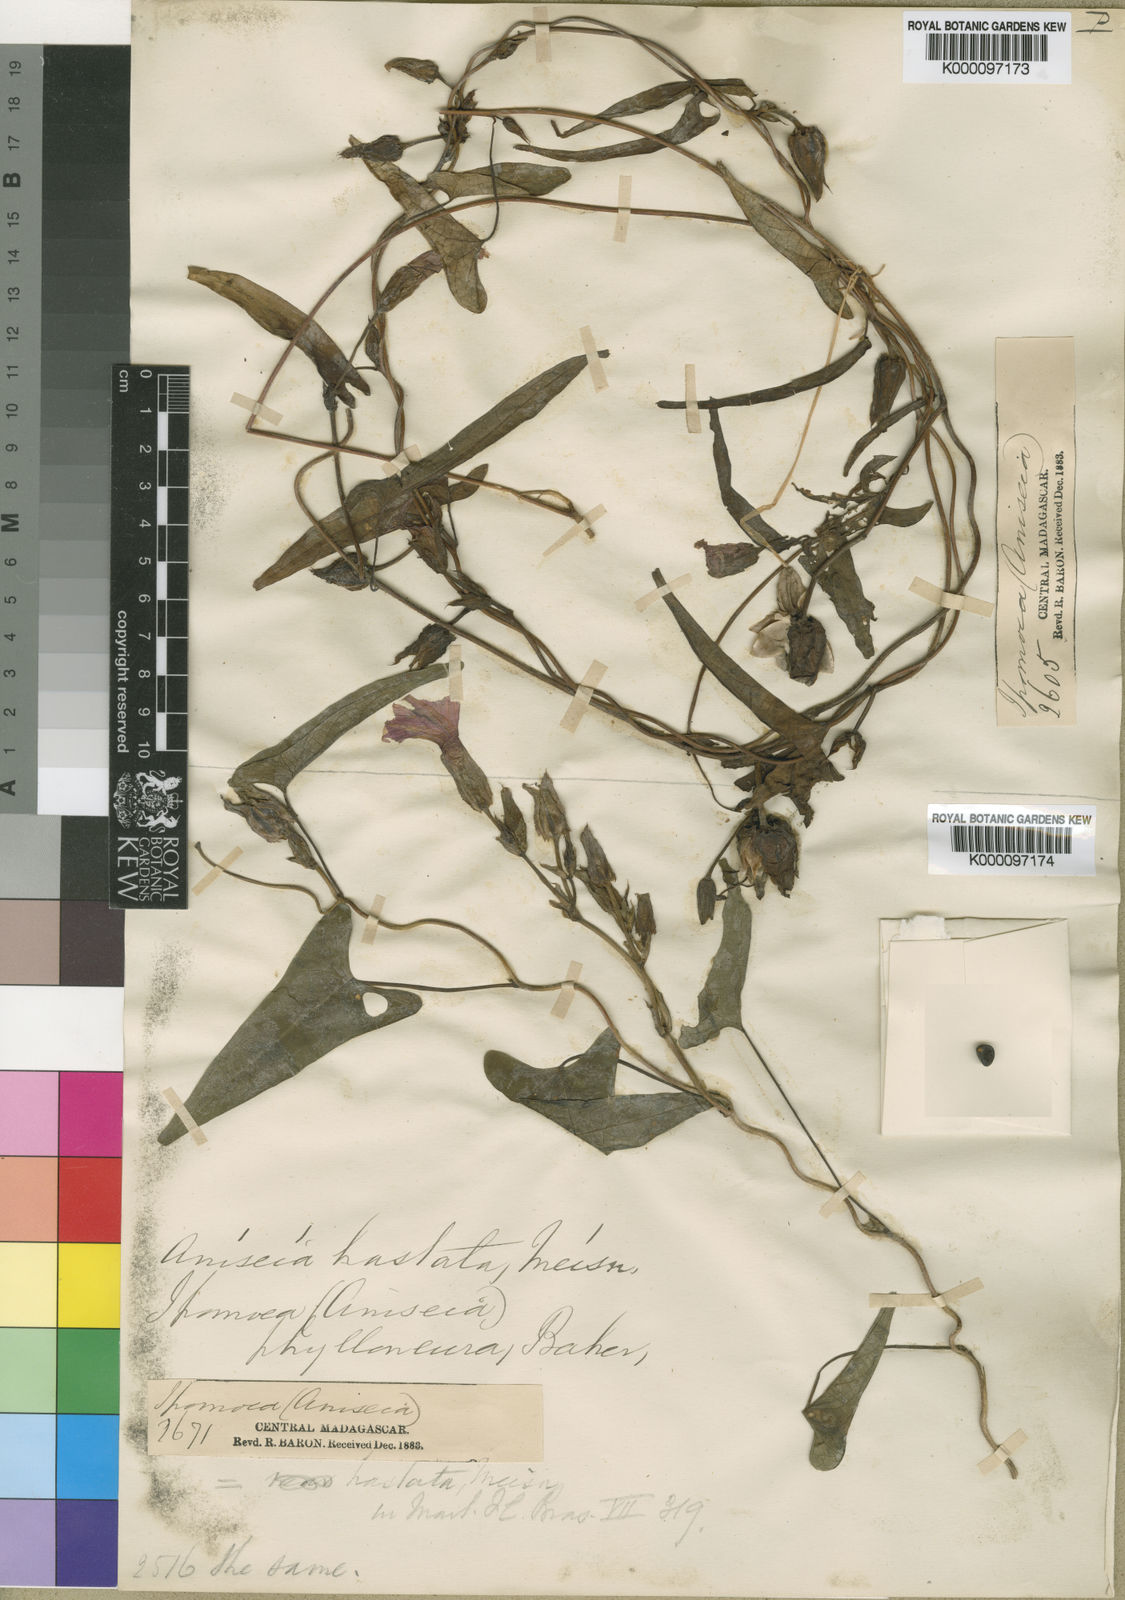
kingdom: Plantae
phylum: Tracheophyta
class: Magnoliopsida
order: Solanales
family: Convolvulaceae
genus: Ipomoea
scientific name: Ipomoea fimbriosepala
